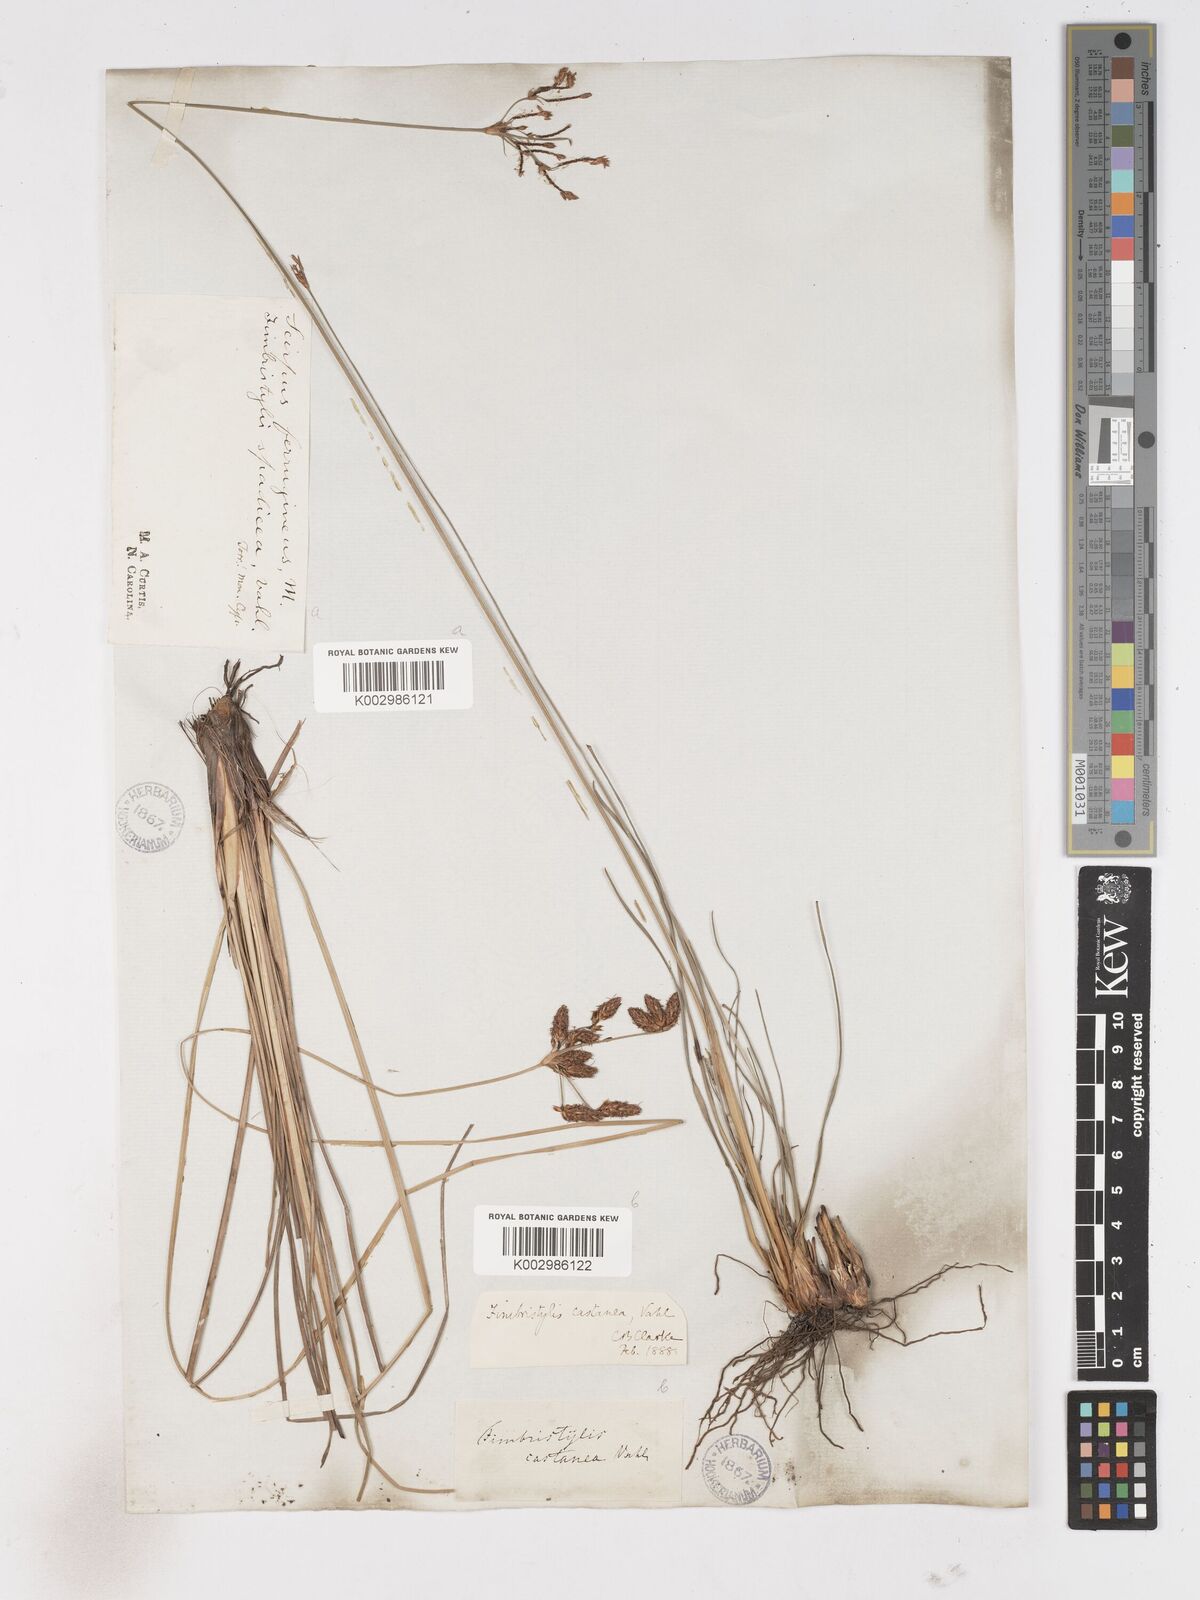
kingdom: Plantae
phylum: Tracheophyta
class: Liliopsida
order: Poales
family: Cyperaceae
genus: Fimbristylis
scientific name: Fimbristylis spadicea
